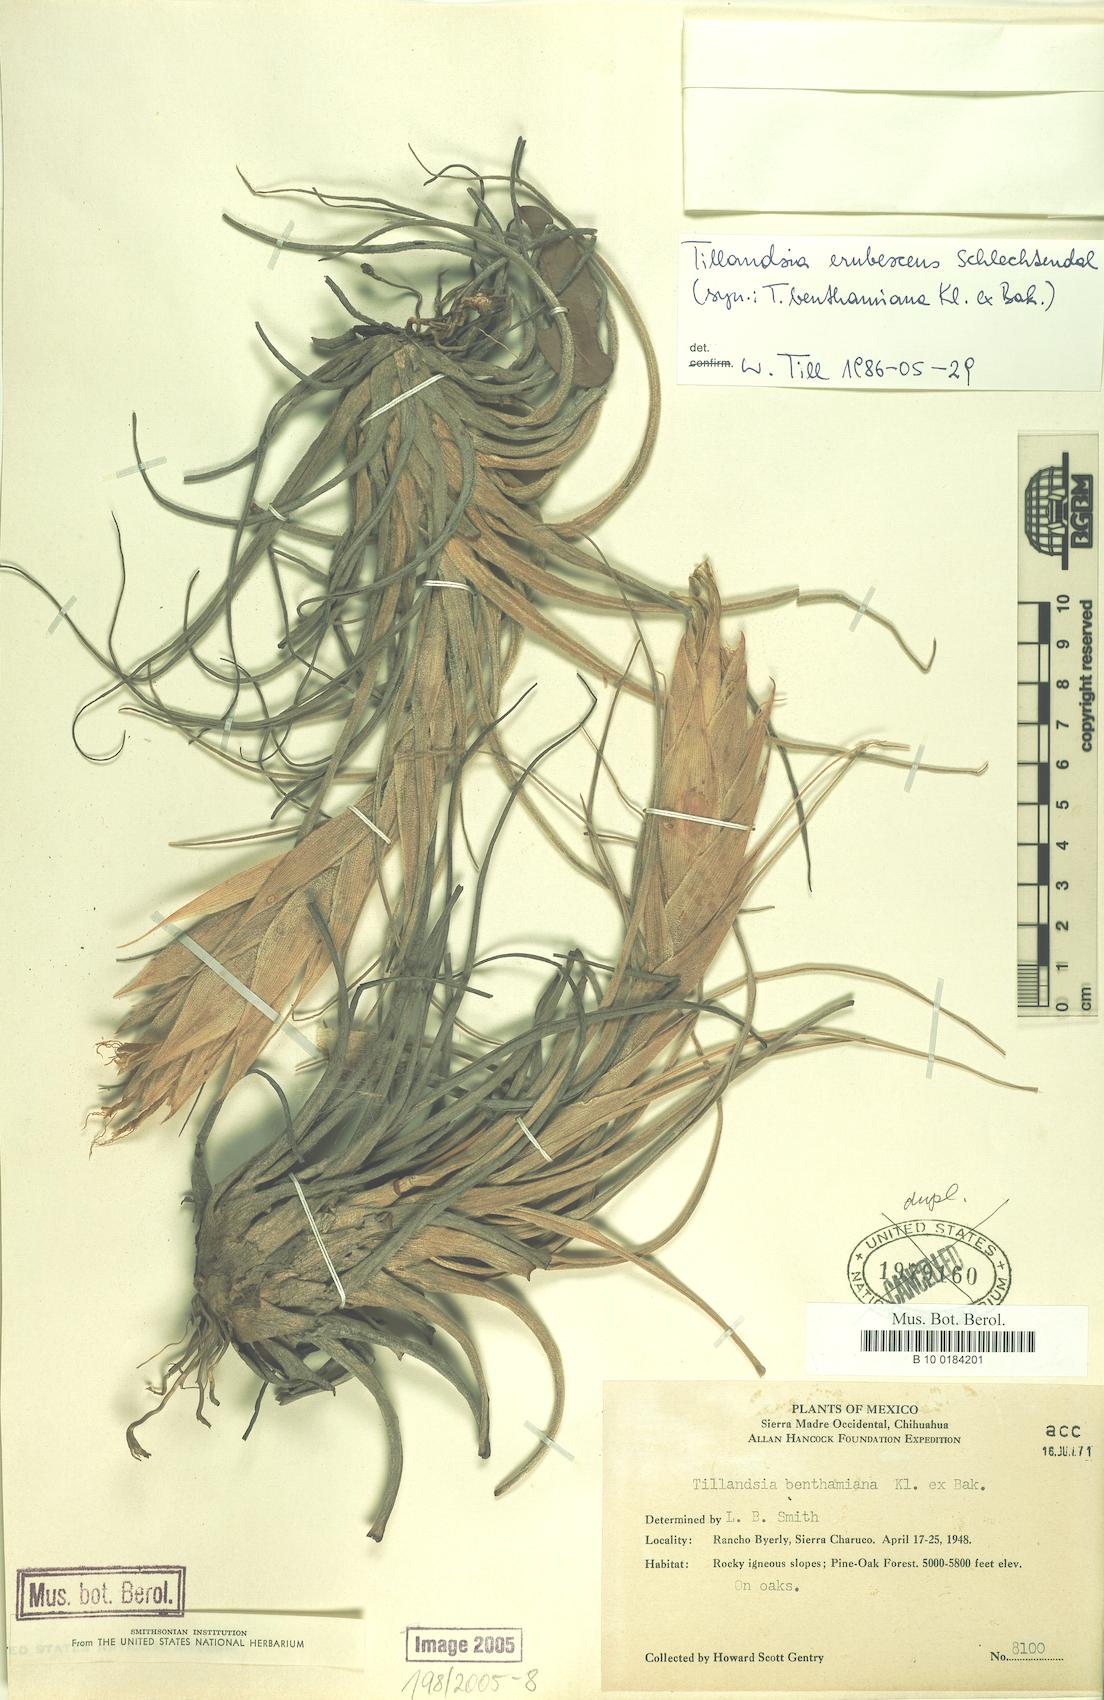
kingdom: Plantae
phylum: Tracheophyta
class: Liliopsida
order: Poales
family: Bromeliaceae
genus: Tillandsia
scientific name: Tillandsia erubescens
